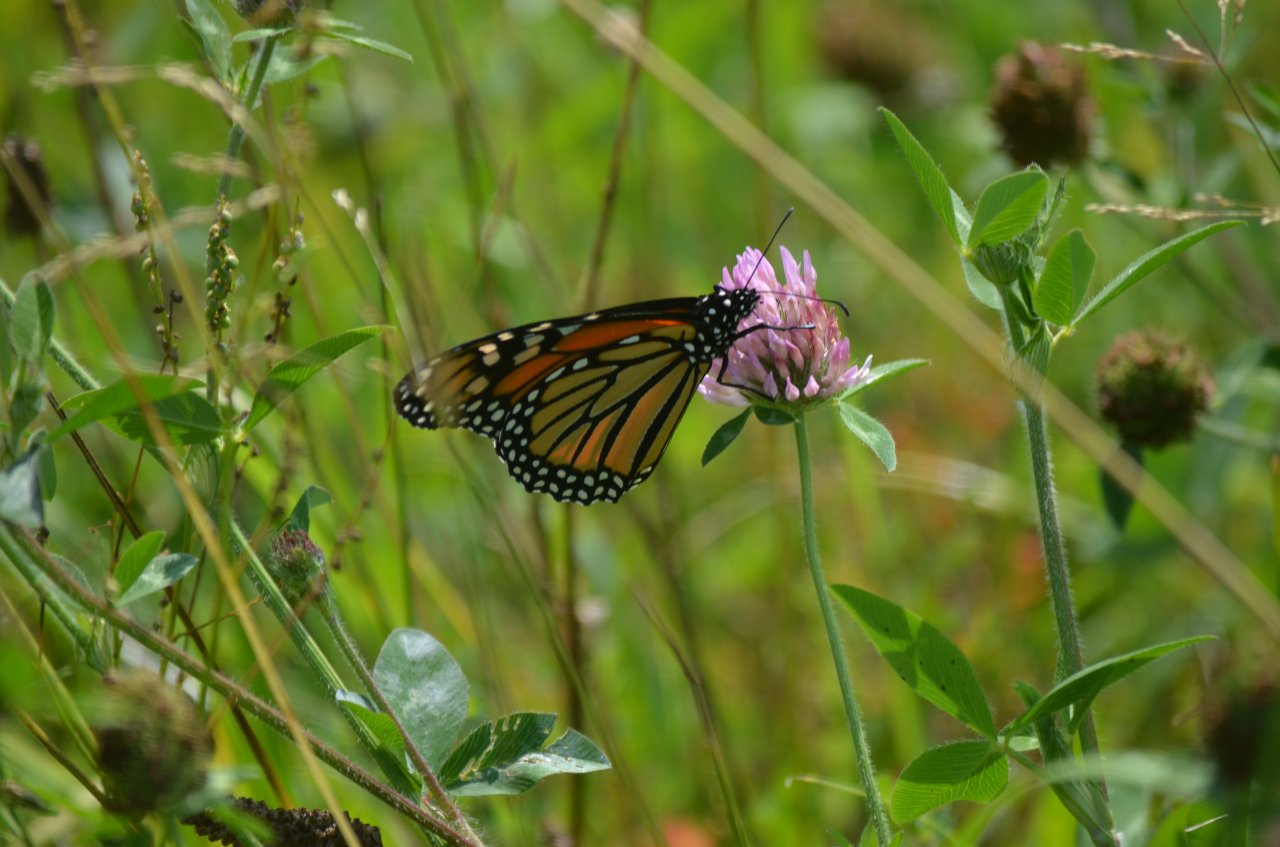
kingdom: Animalia
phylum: Arthropoda
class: Insecta
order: Lepidoptera
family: Nymphalidae
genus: Danaus
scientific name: Danaus plexippus
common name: Monarch
